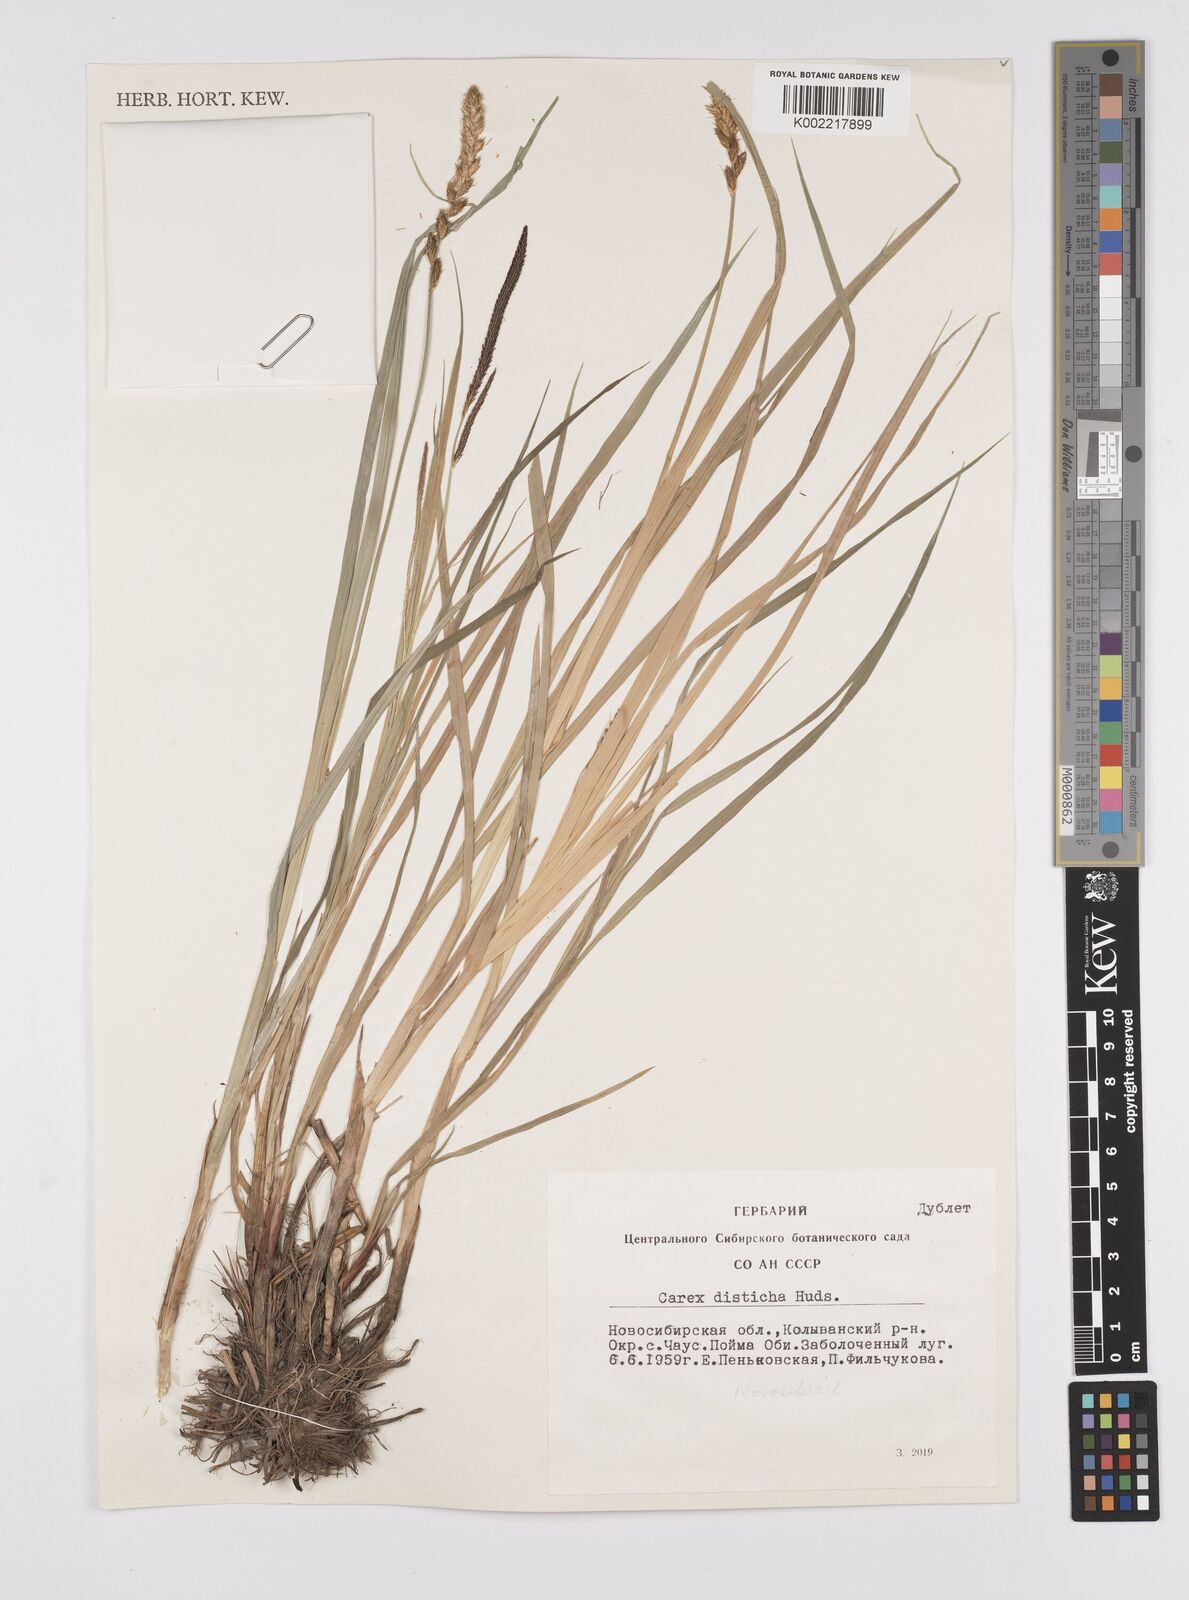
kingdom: Plantae
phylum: Tracheophyta
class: Liliopsida
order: Poales
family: Cyperaceae
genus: Carex
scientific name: Carex disticha
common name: Brown sedge
